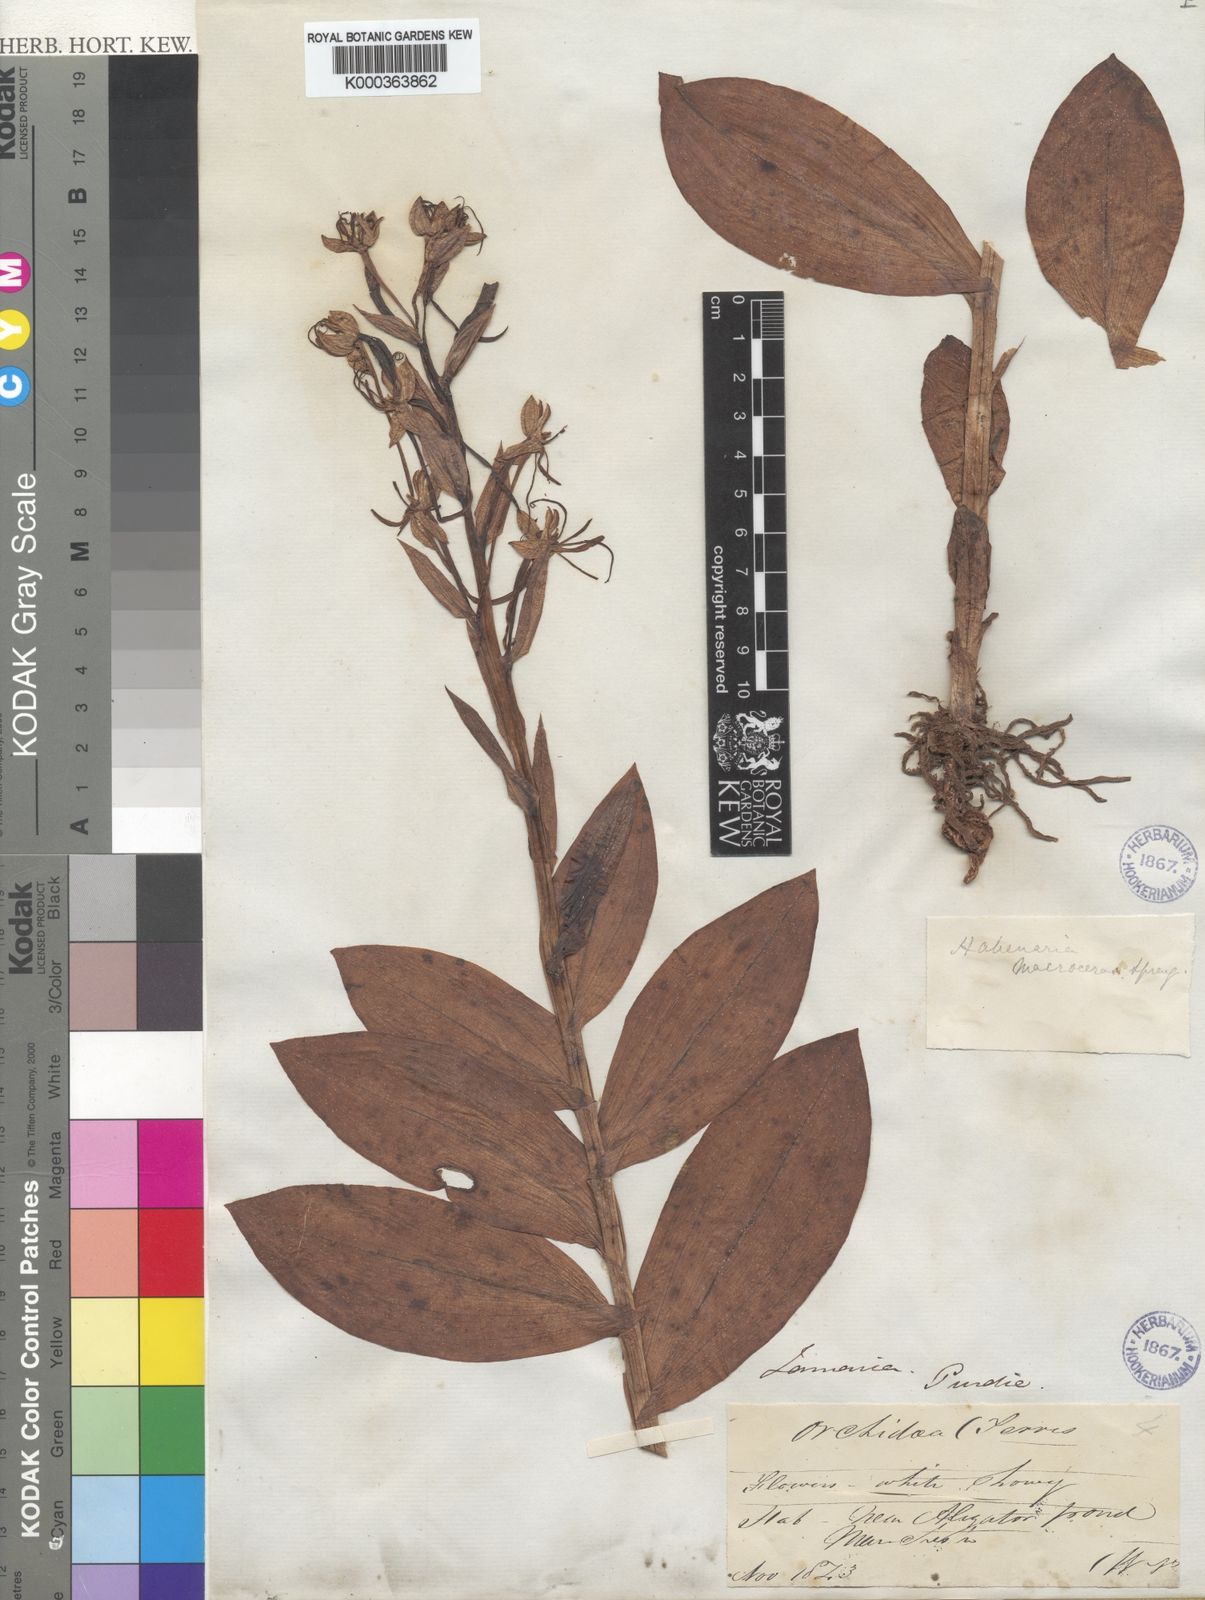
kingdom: Plantae
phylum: Tracheophyta
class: Liliopsida
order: Asparagales
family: Orchidaceae
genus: Habenaria
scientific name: Habenaria
